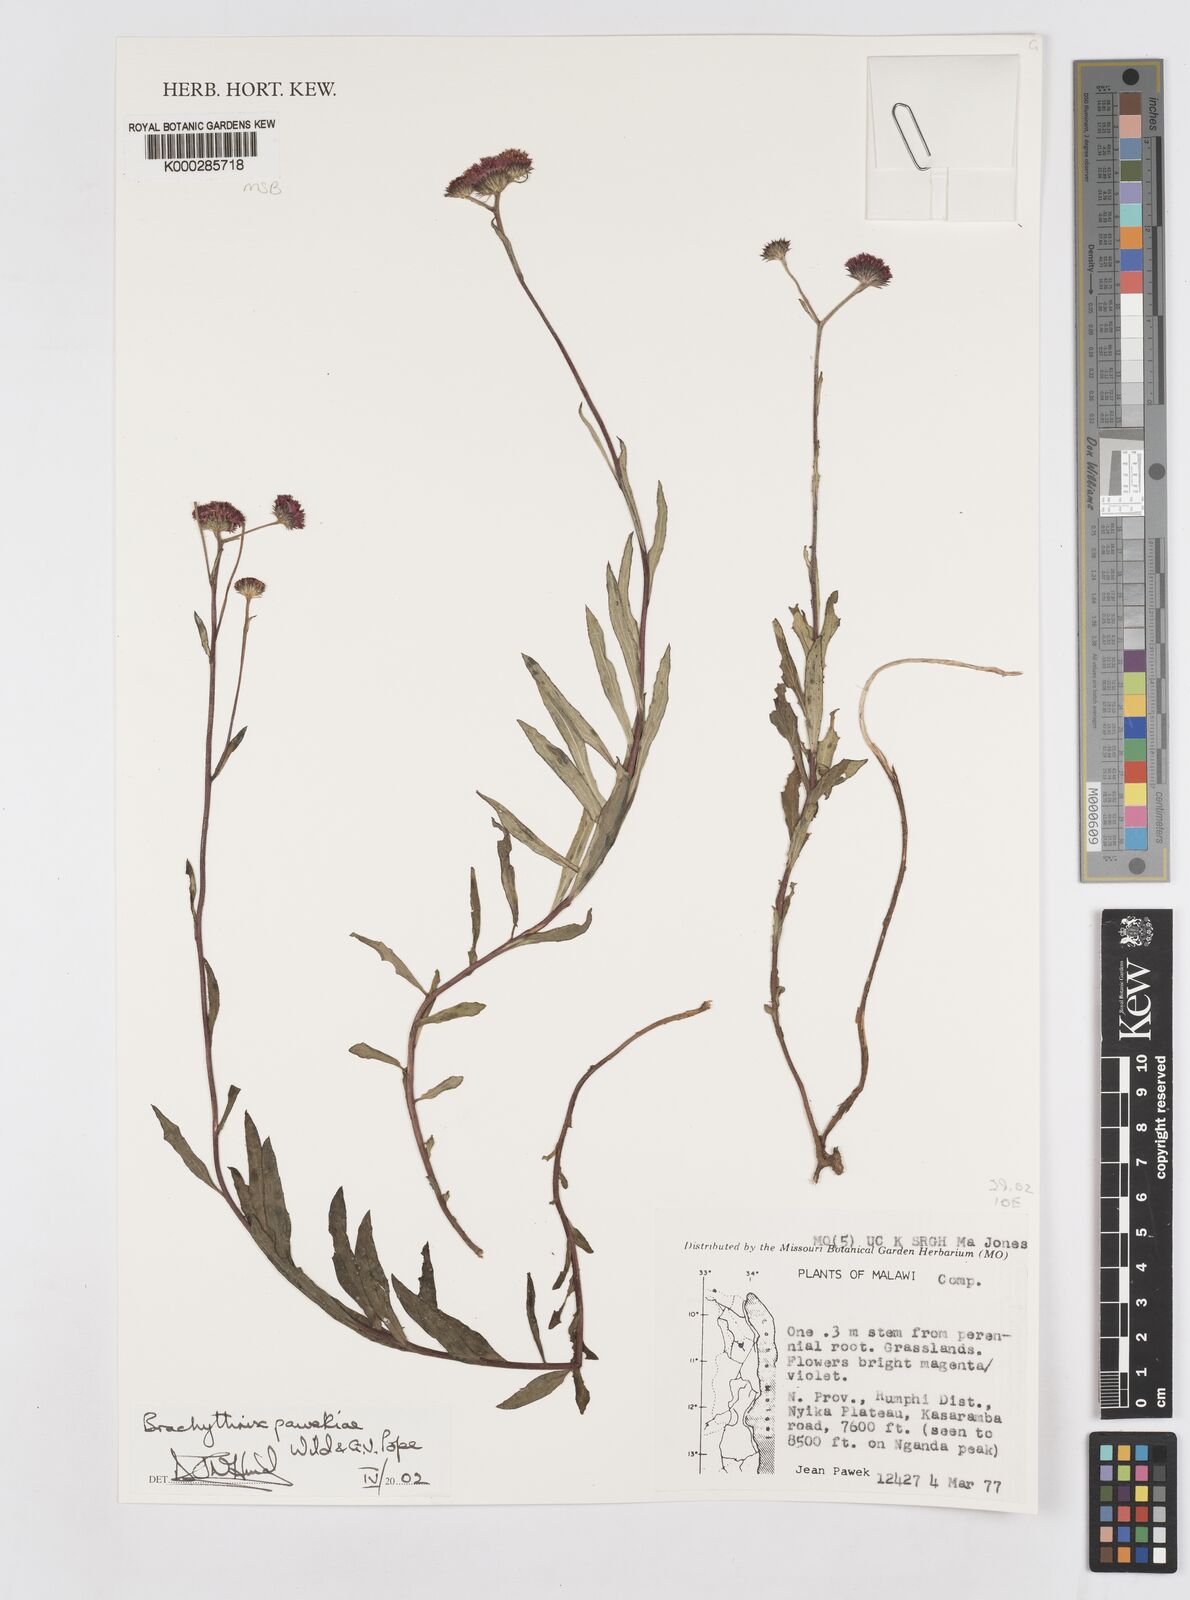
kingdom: Plantae
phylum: Tracheophyta
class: Magnoliopsida
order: Asterales
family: Asteraceae
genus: Brachythrix
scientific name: Brachythrix pawekiae
